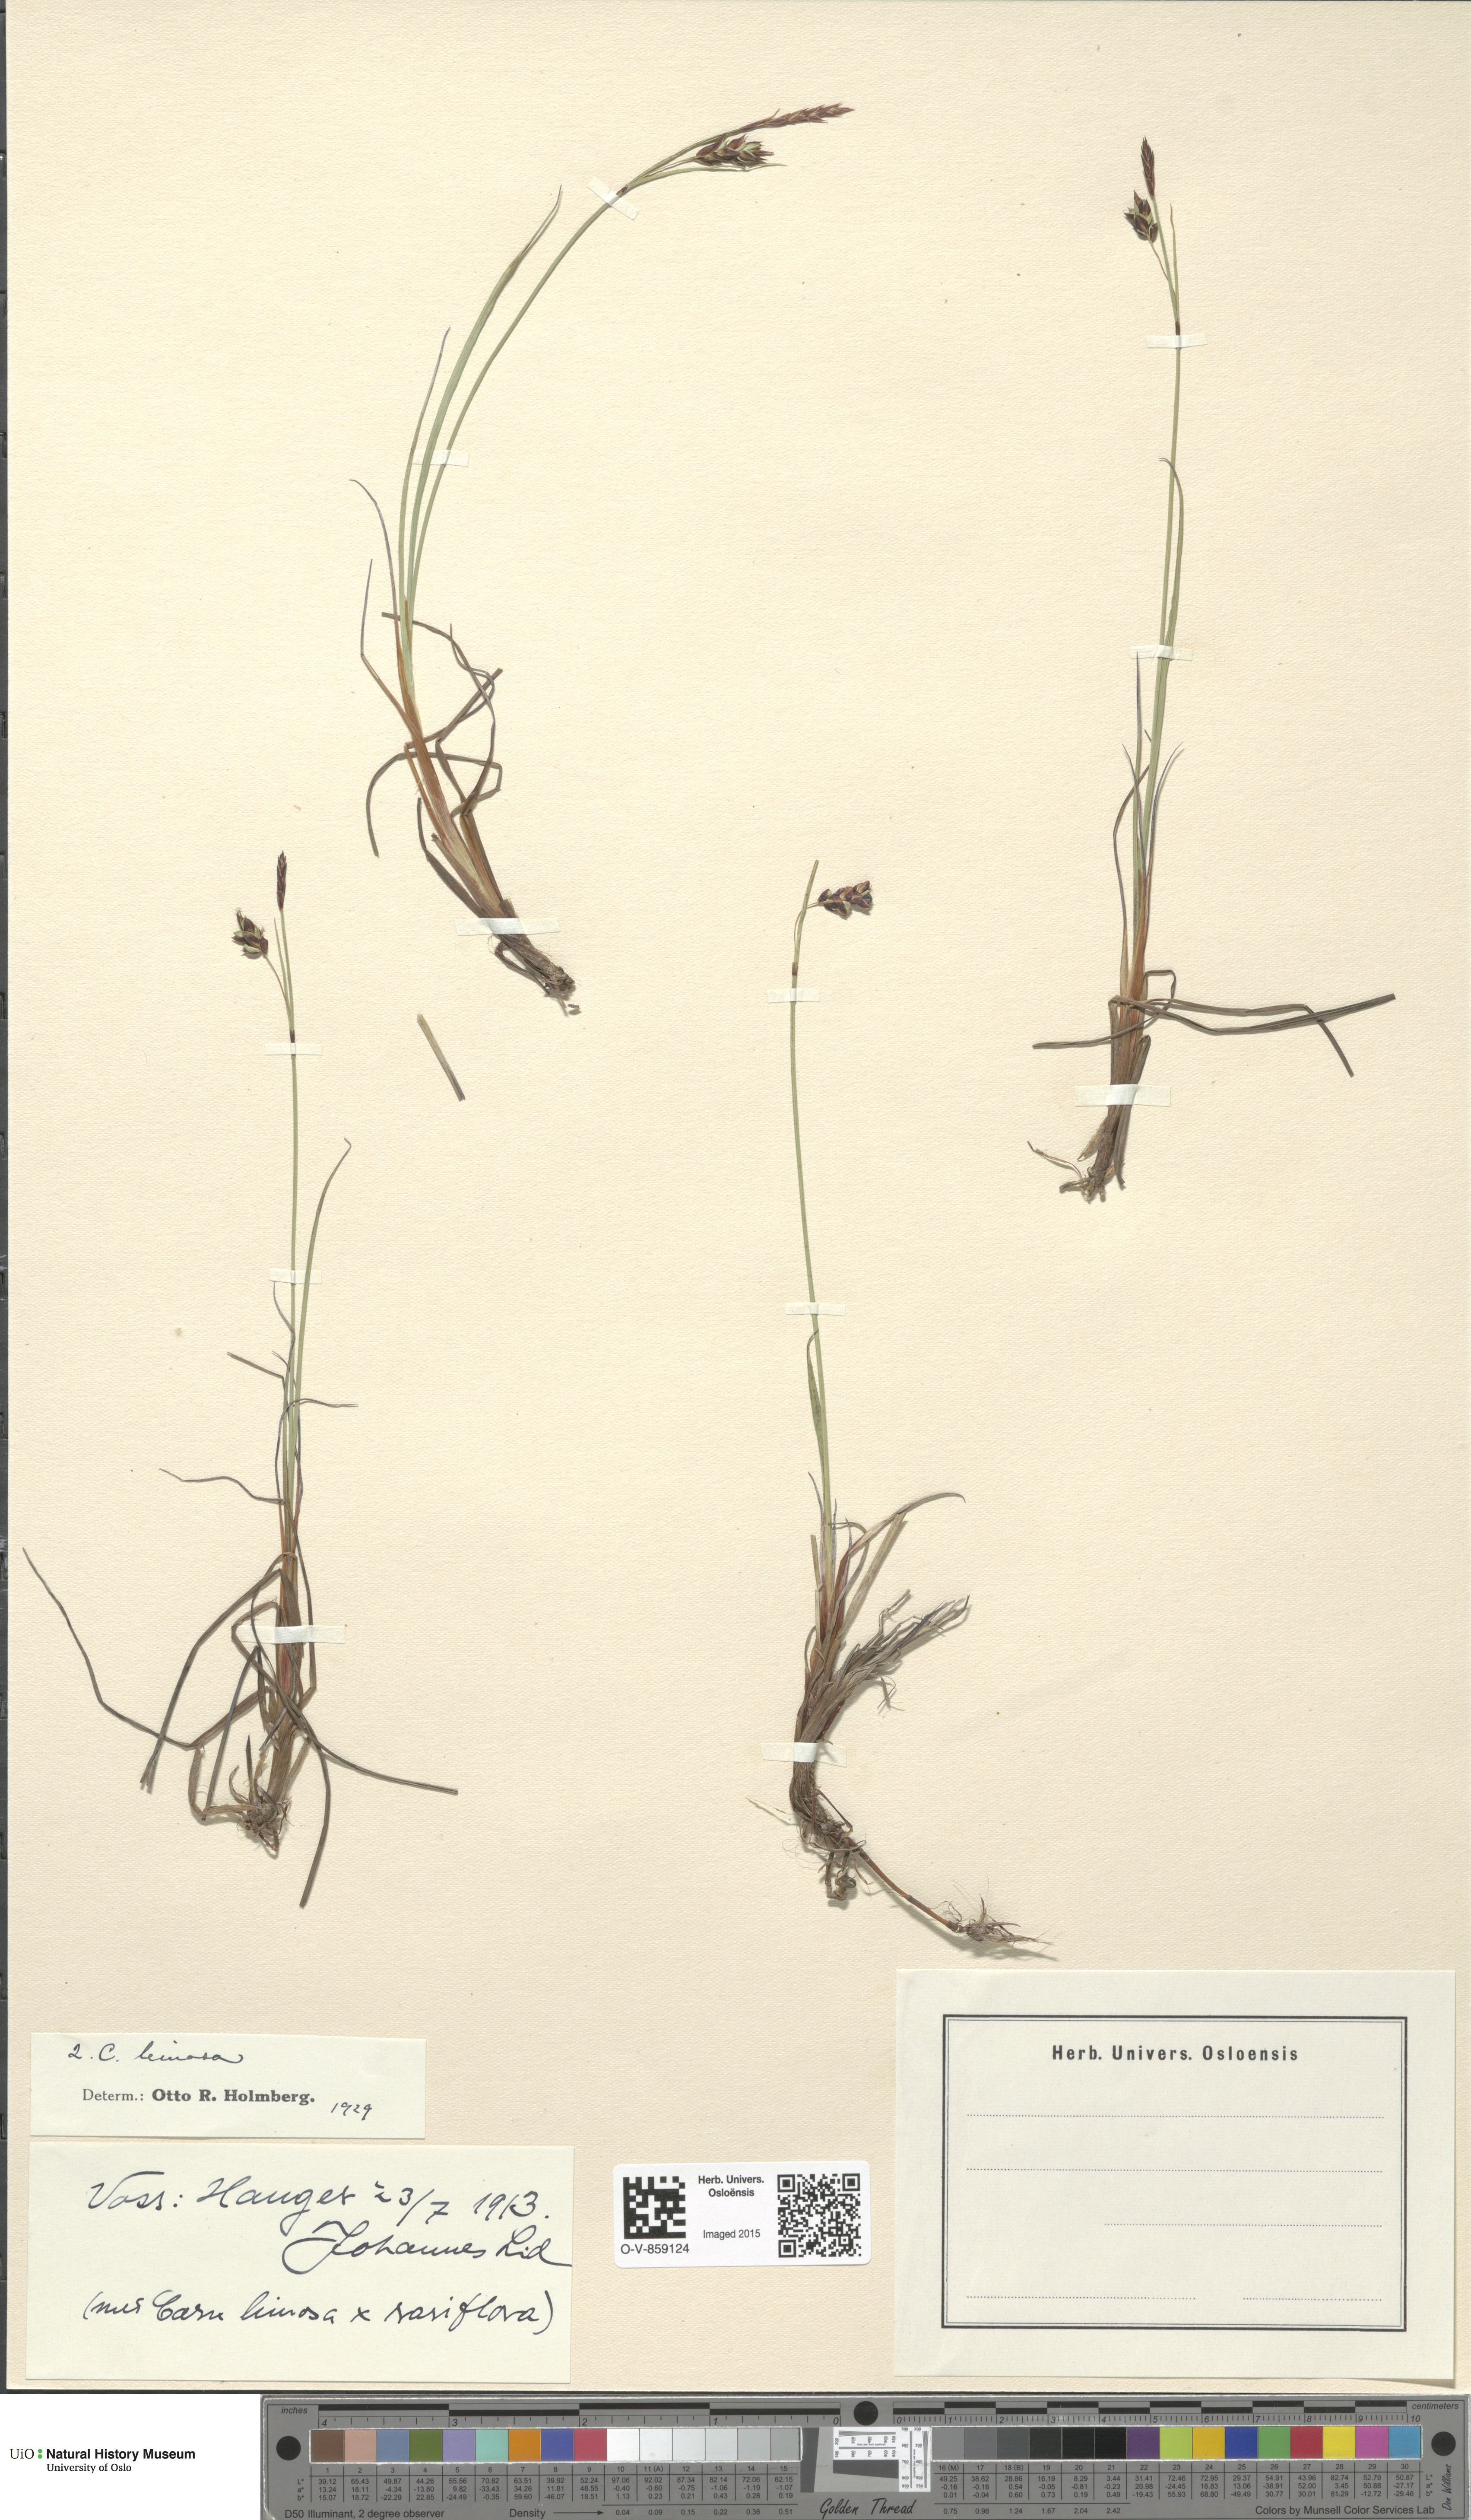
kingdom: Plantae
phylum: Tracheophyta
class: Liliopsida
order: Poales
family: Cyperaceae
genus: Carex
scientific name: Carex limosa
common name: Bog sedge
